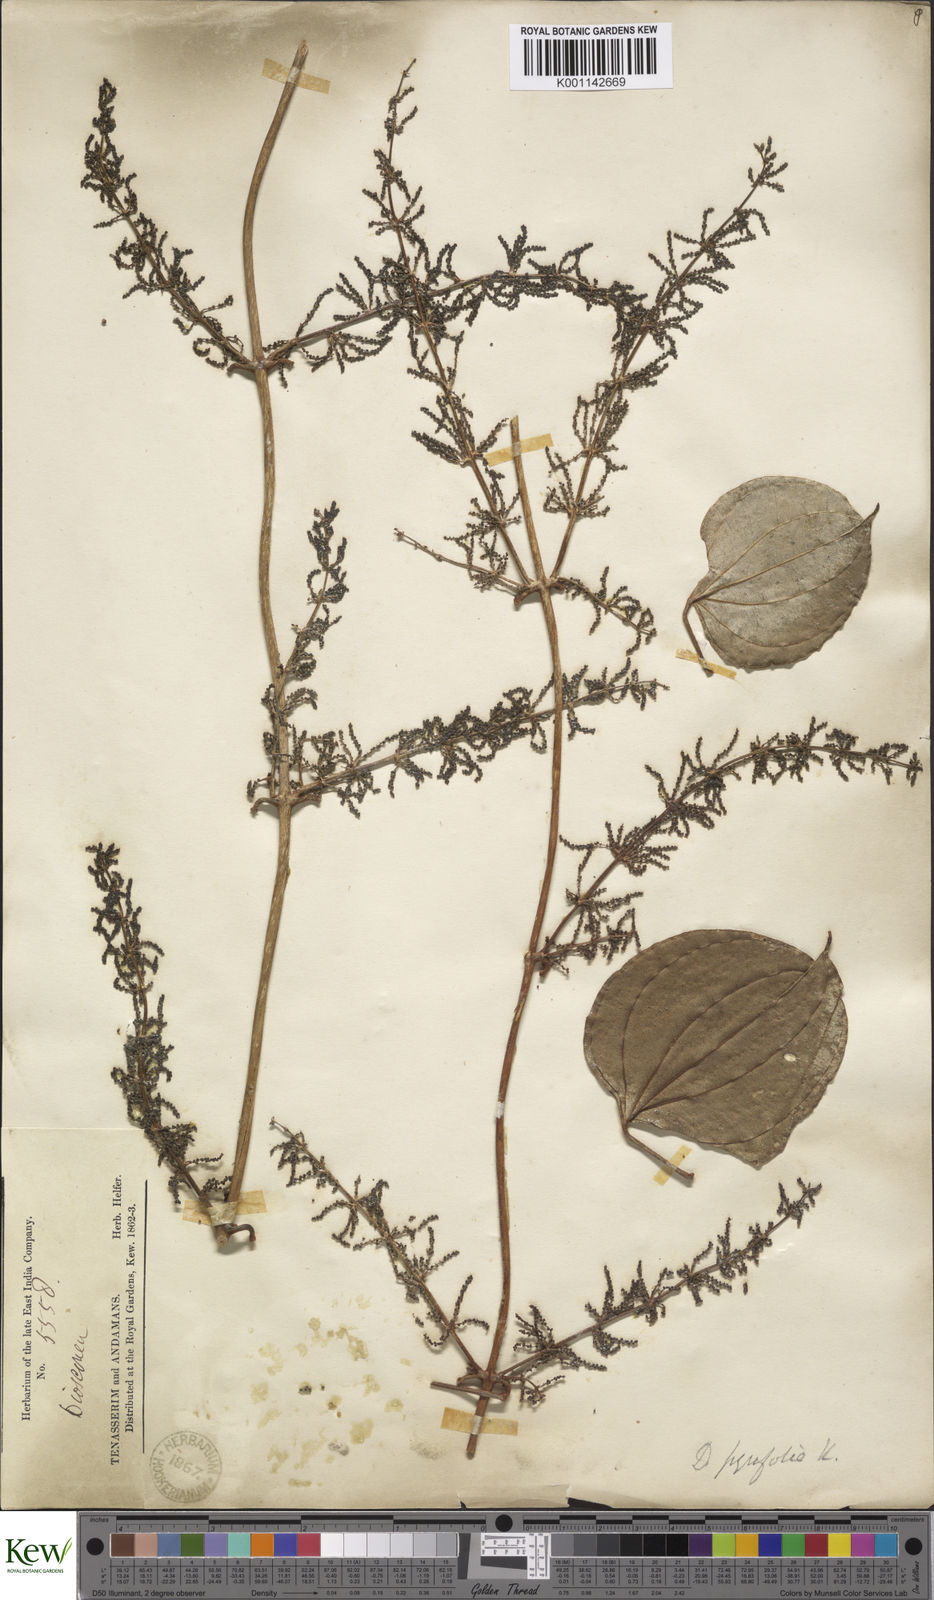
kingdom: Plantae
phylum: Tracheophyta
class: Liliopsida
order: Dioscoreales
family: Dioscoreaceae
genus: Dioscorea
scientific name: Dioscorea pyrifolia
